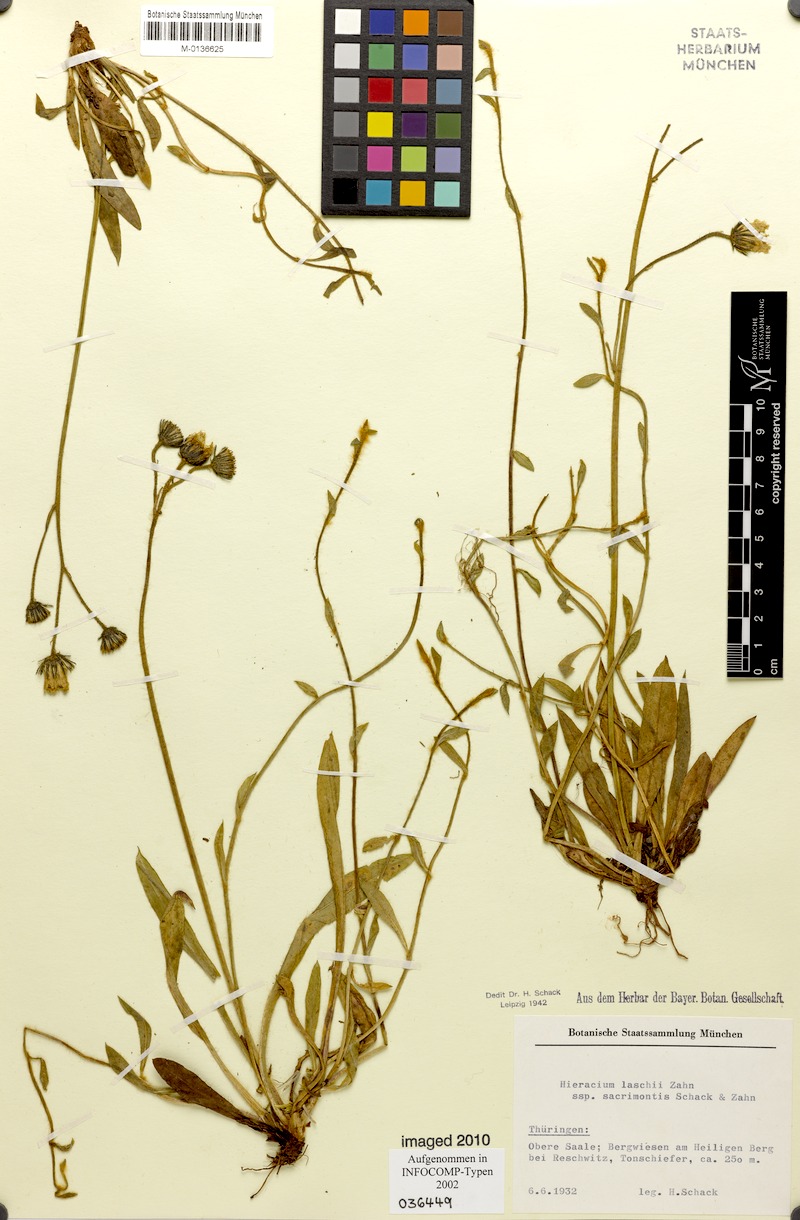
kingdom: Plantae
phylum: Tracheophyta
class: Magnoliopsida
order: Asterales
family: Asteraceae
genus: Pilosella
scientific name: Pilosella acutifolia
